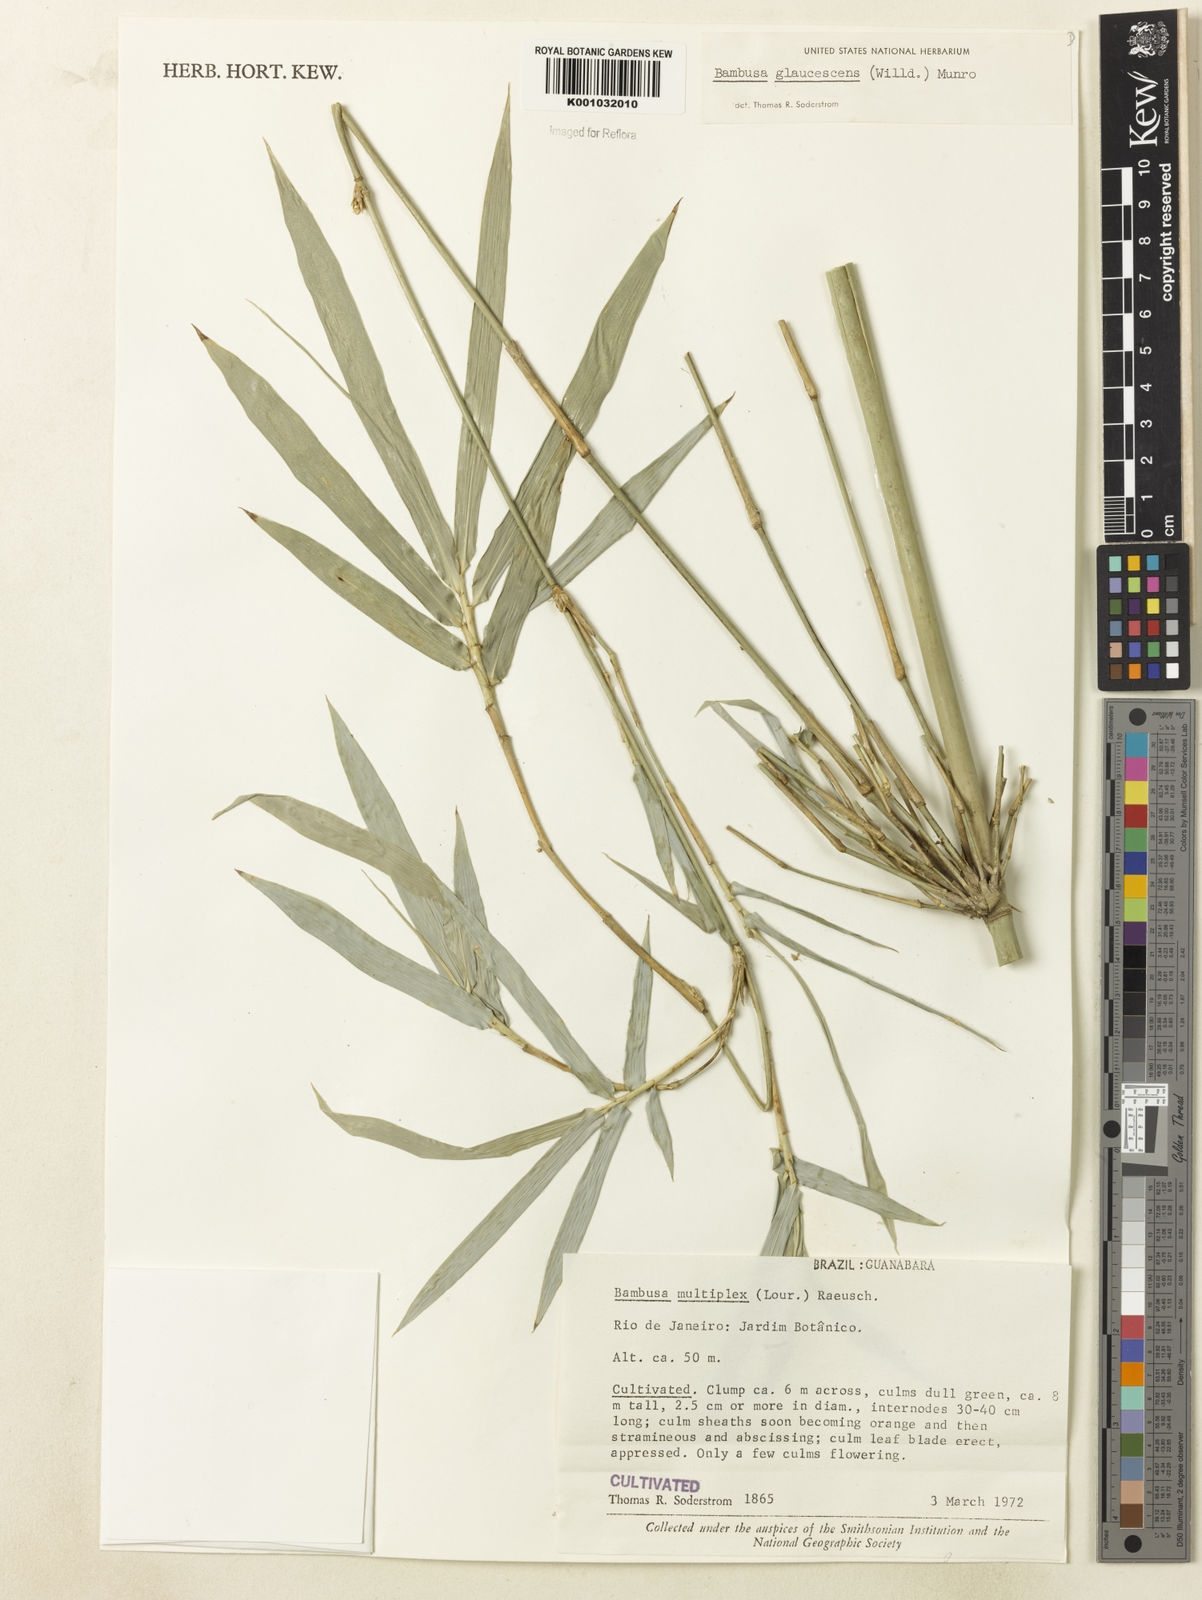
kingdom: Plantae
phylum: Tracheophyta
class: Liliopsida
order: Poales
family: Poaceae
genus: Bambusa
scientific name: Bambusa multiplex
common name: Hedge bamboo
